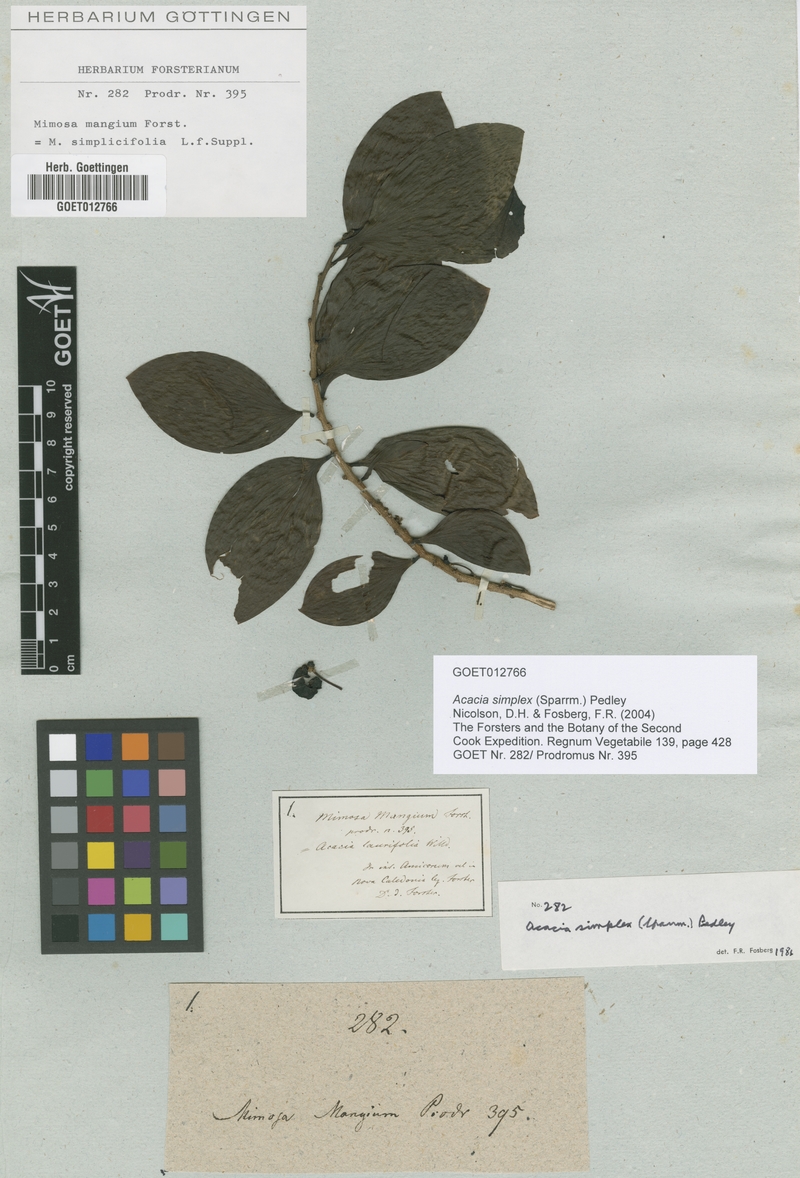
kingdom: Plantae
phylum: Tracheophyta
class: Magnoliopsida
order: Fabales
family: Fabaceae
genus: Acacia
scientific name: Acacia simplex
